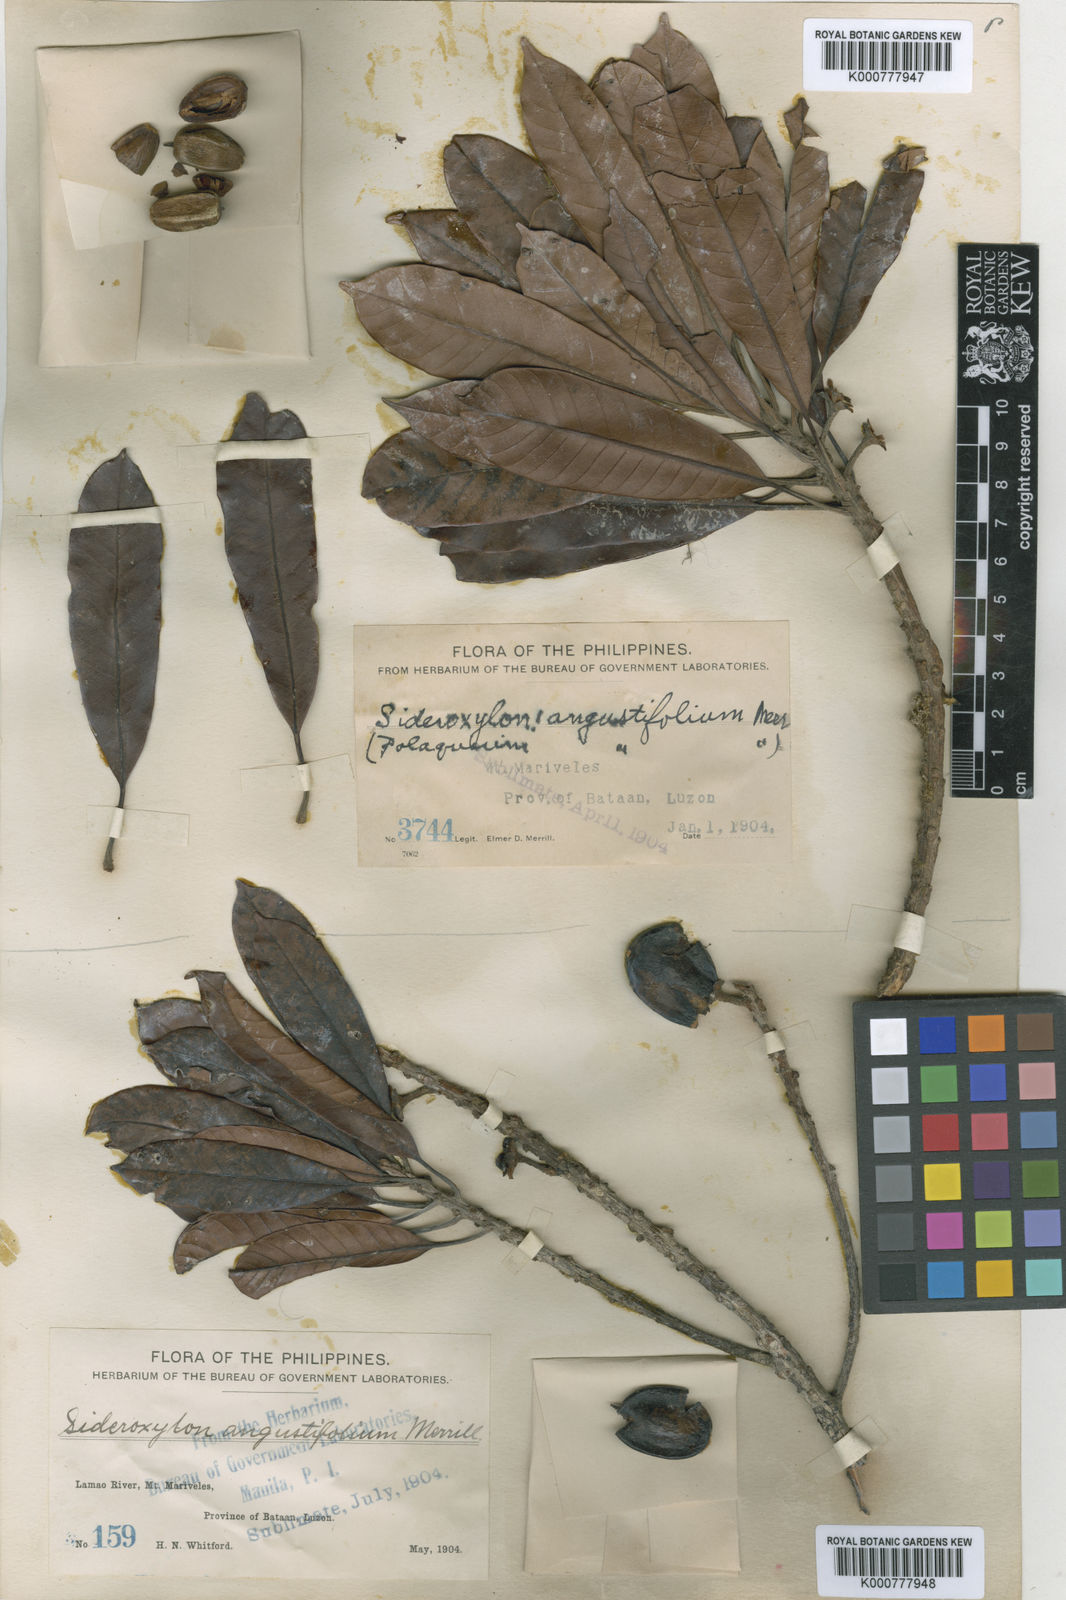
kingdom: Plantae
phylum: Tracheophyta
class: Magnoliopsida
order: Ericales
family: Sapotaceae
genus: Pouteria
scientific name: Pouteria
